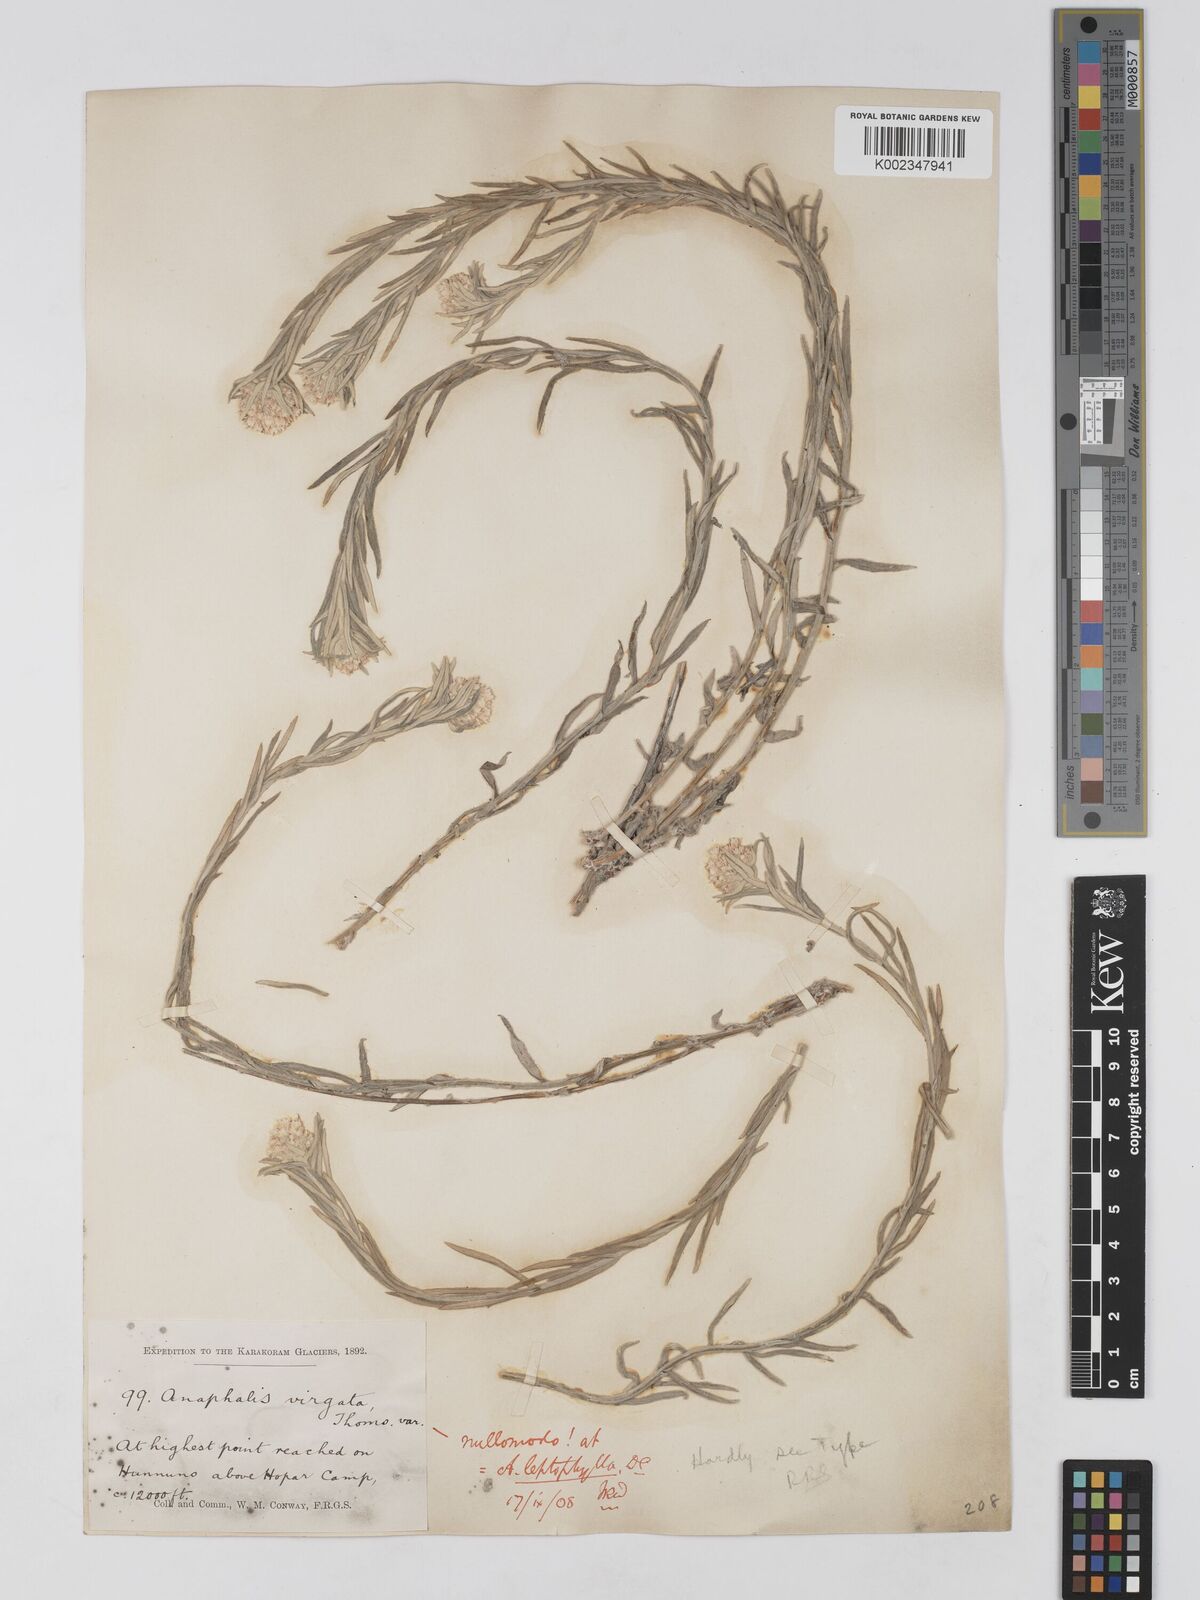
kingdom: Plantae
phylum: Tracheophyta
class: Magnoliopsida
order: Asterales
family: Asteraceae
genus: Anaphalis
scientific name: Anaphalis leptophylla
